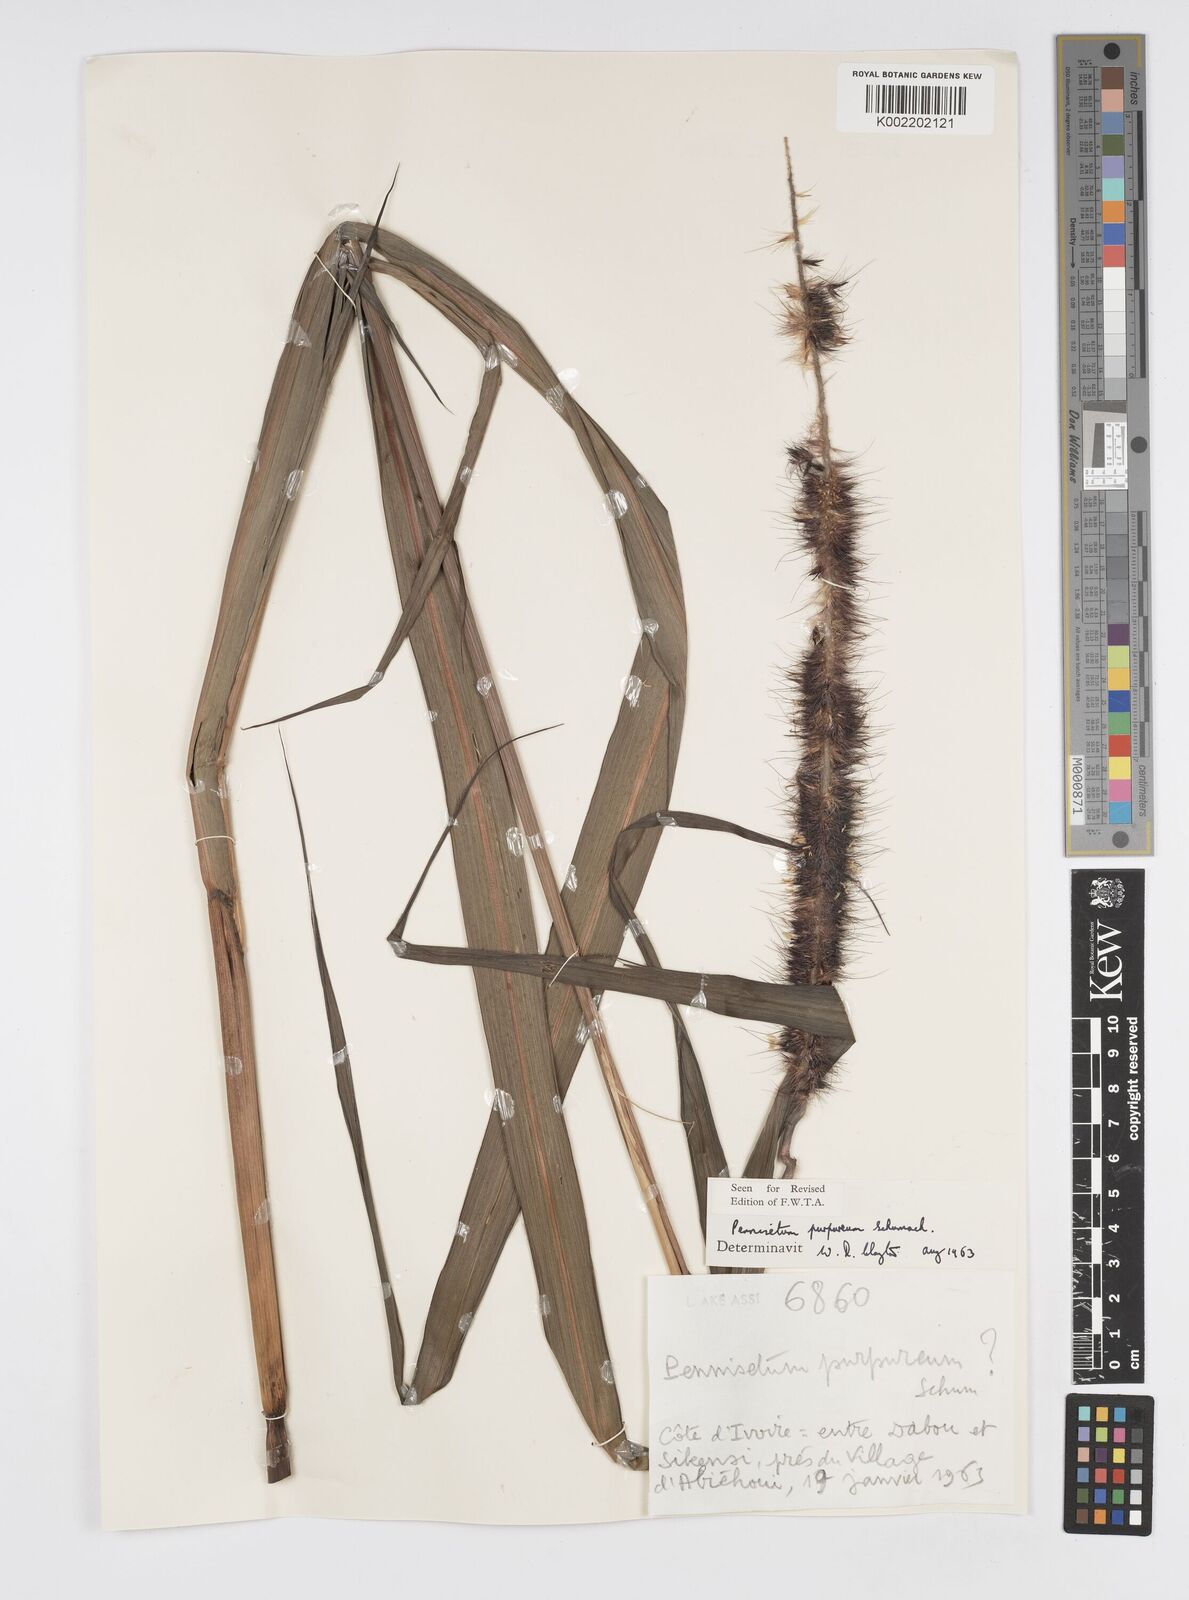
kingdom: Plantae
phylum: Tracheophyta
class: Liliopsida
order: Poales
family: Poaceae
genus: Cenchrus
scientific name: Cenchrus purpureus
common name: Elephant grass
